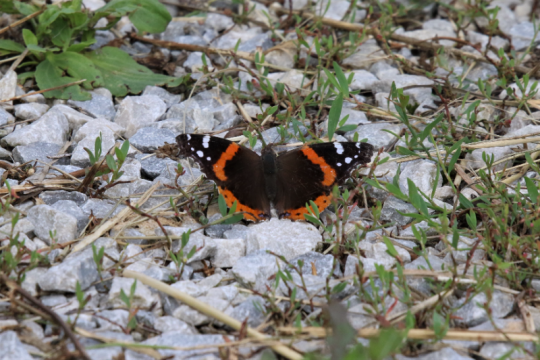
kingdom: Animalia
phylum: Arthropoda
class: Insecta
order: Lepidoptera
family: Nymphalidae
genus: Vanessa
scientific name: Vanessa atalanta
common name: Red Admiral
